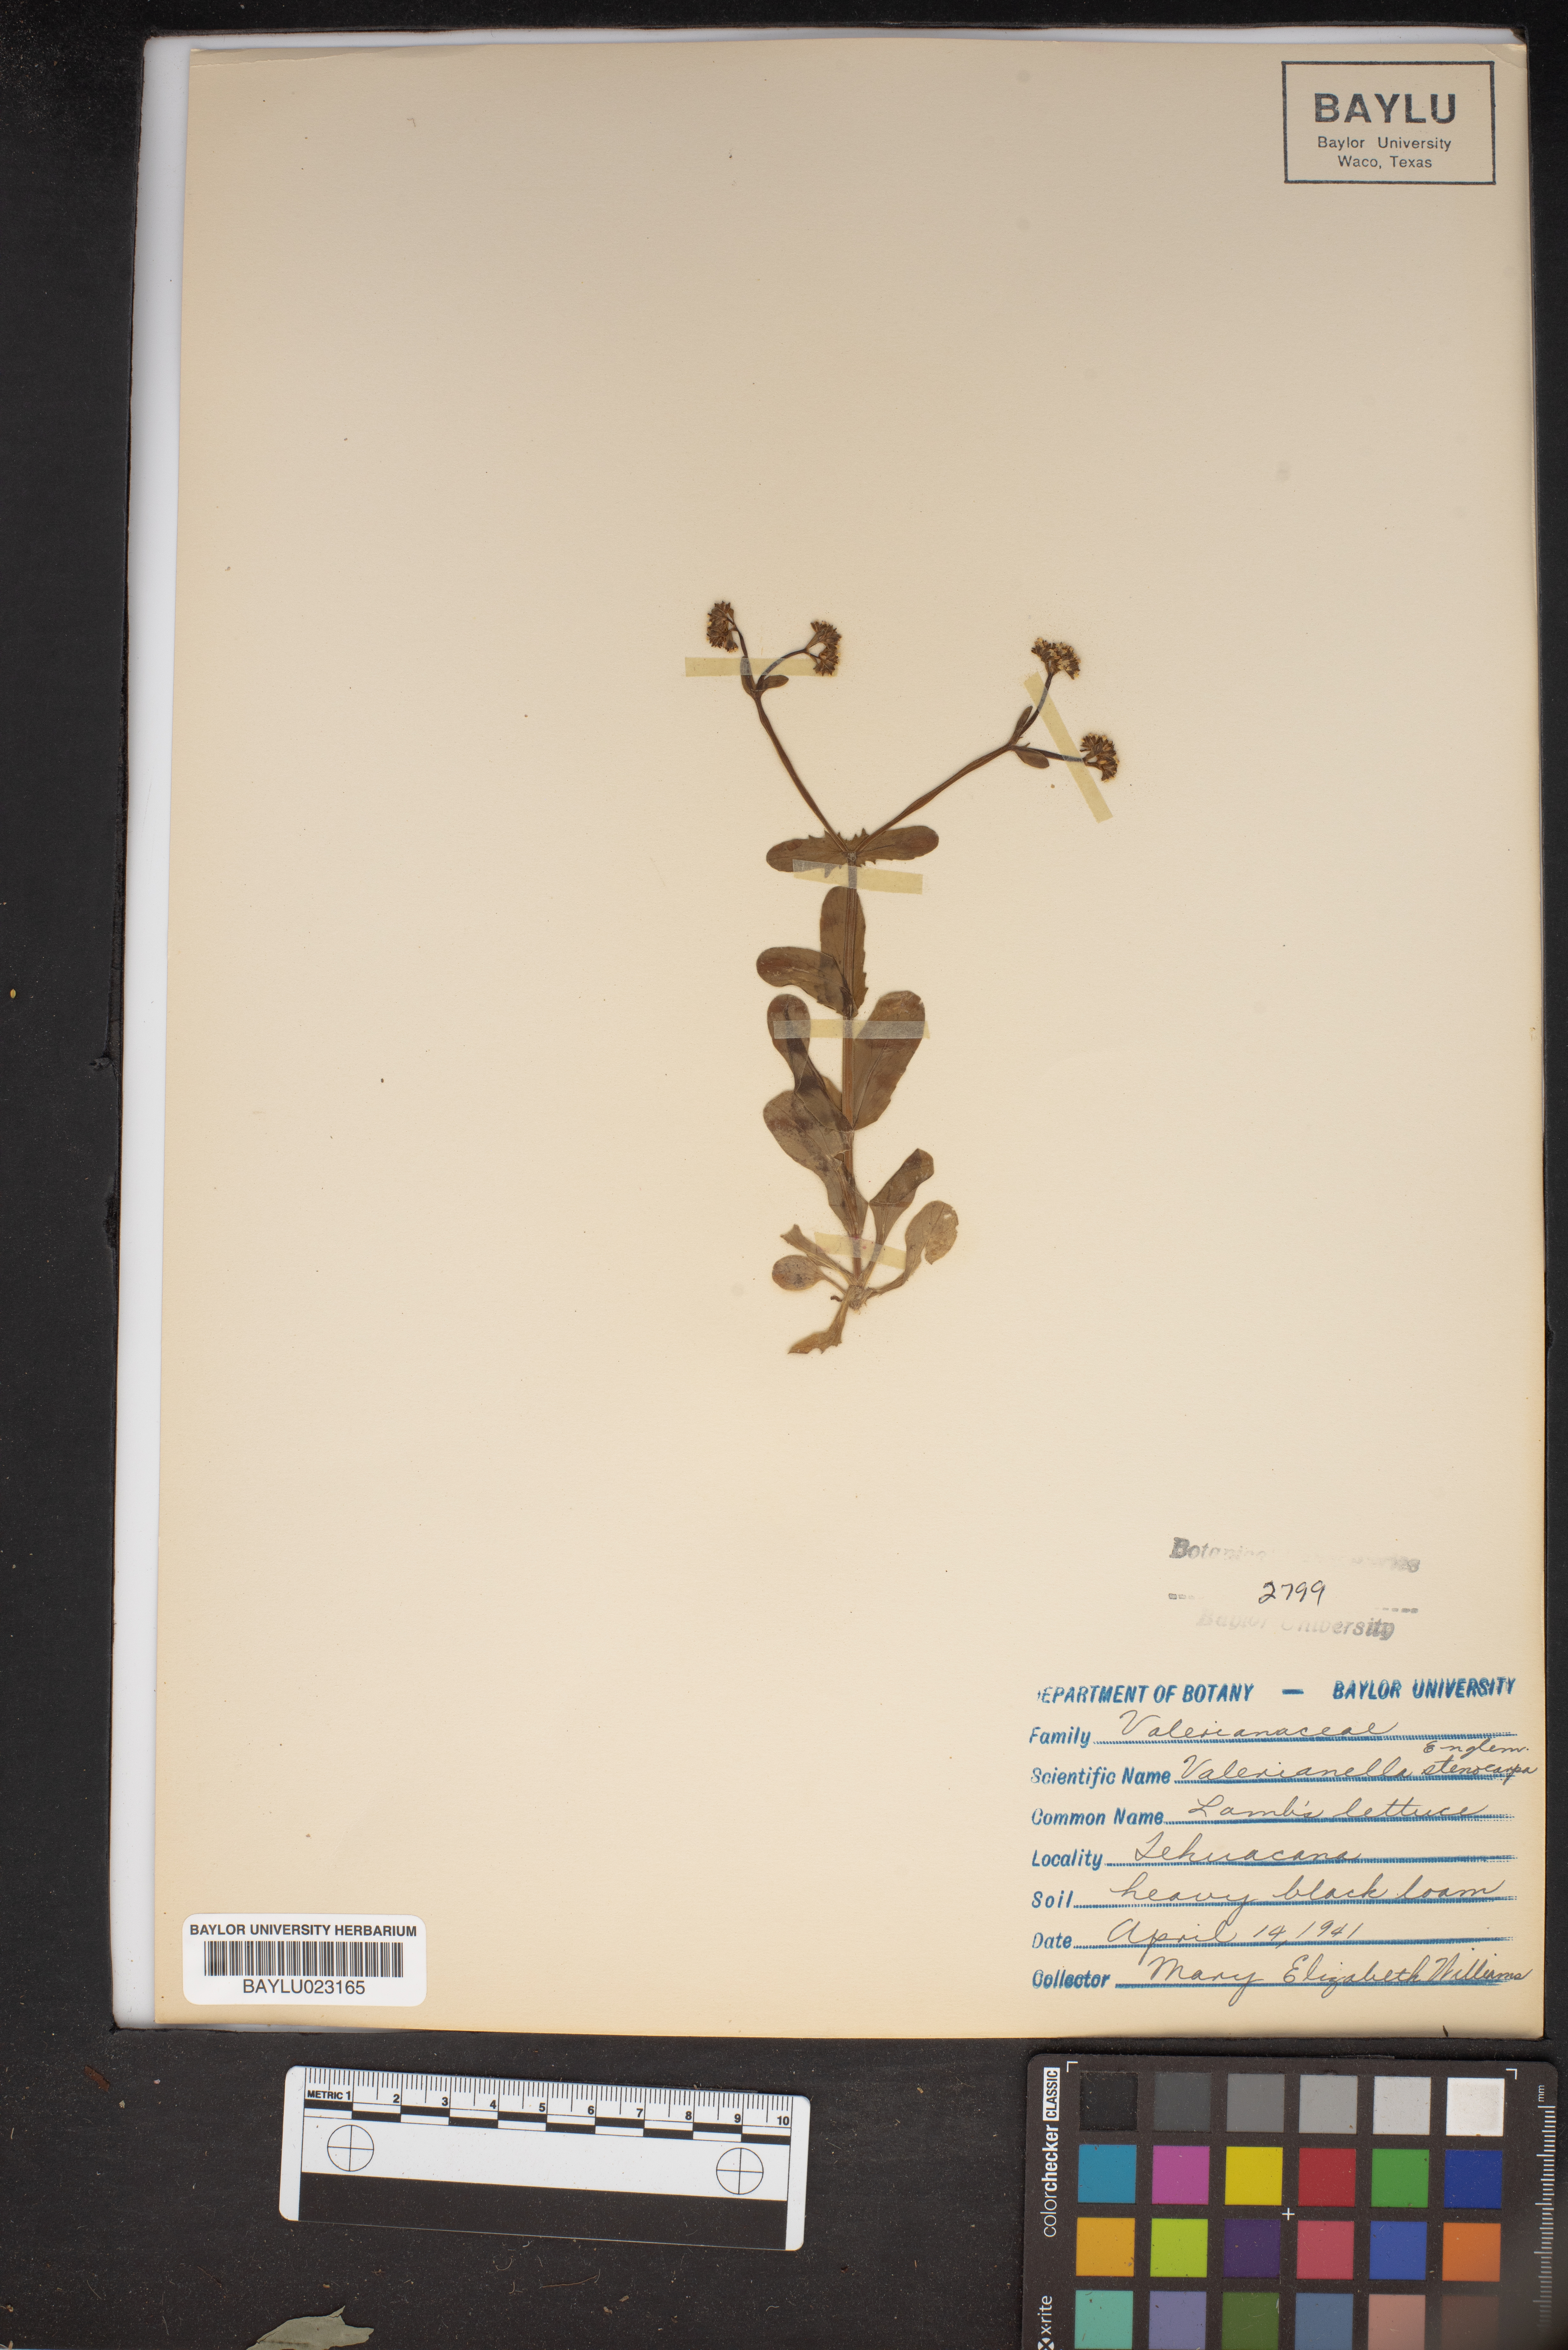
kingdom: Plantae
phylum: Tracheophyta
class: Magnoliopsida
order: Dipsacales
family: Caprifoliaceae
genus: Valerianella
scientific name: Valerianella stenocarpa
